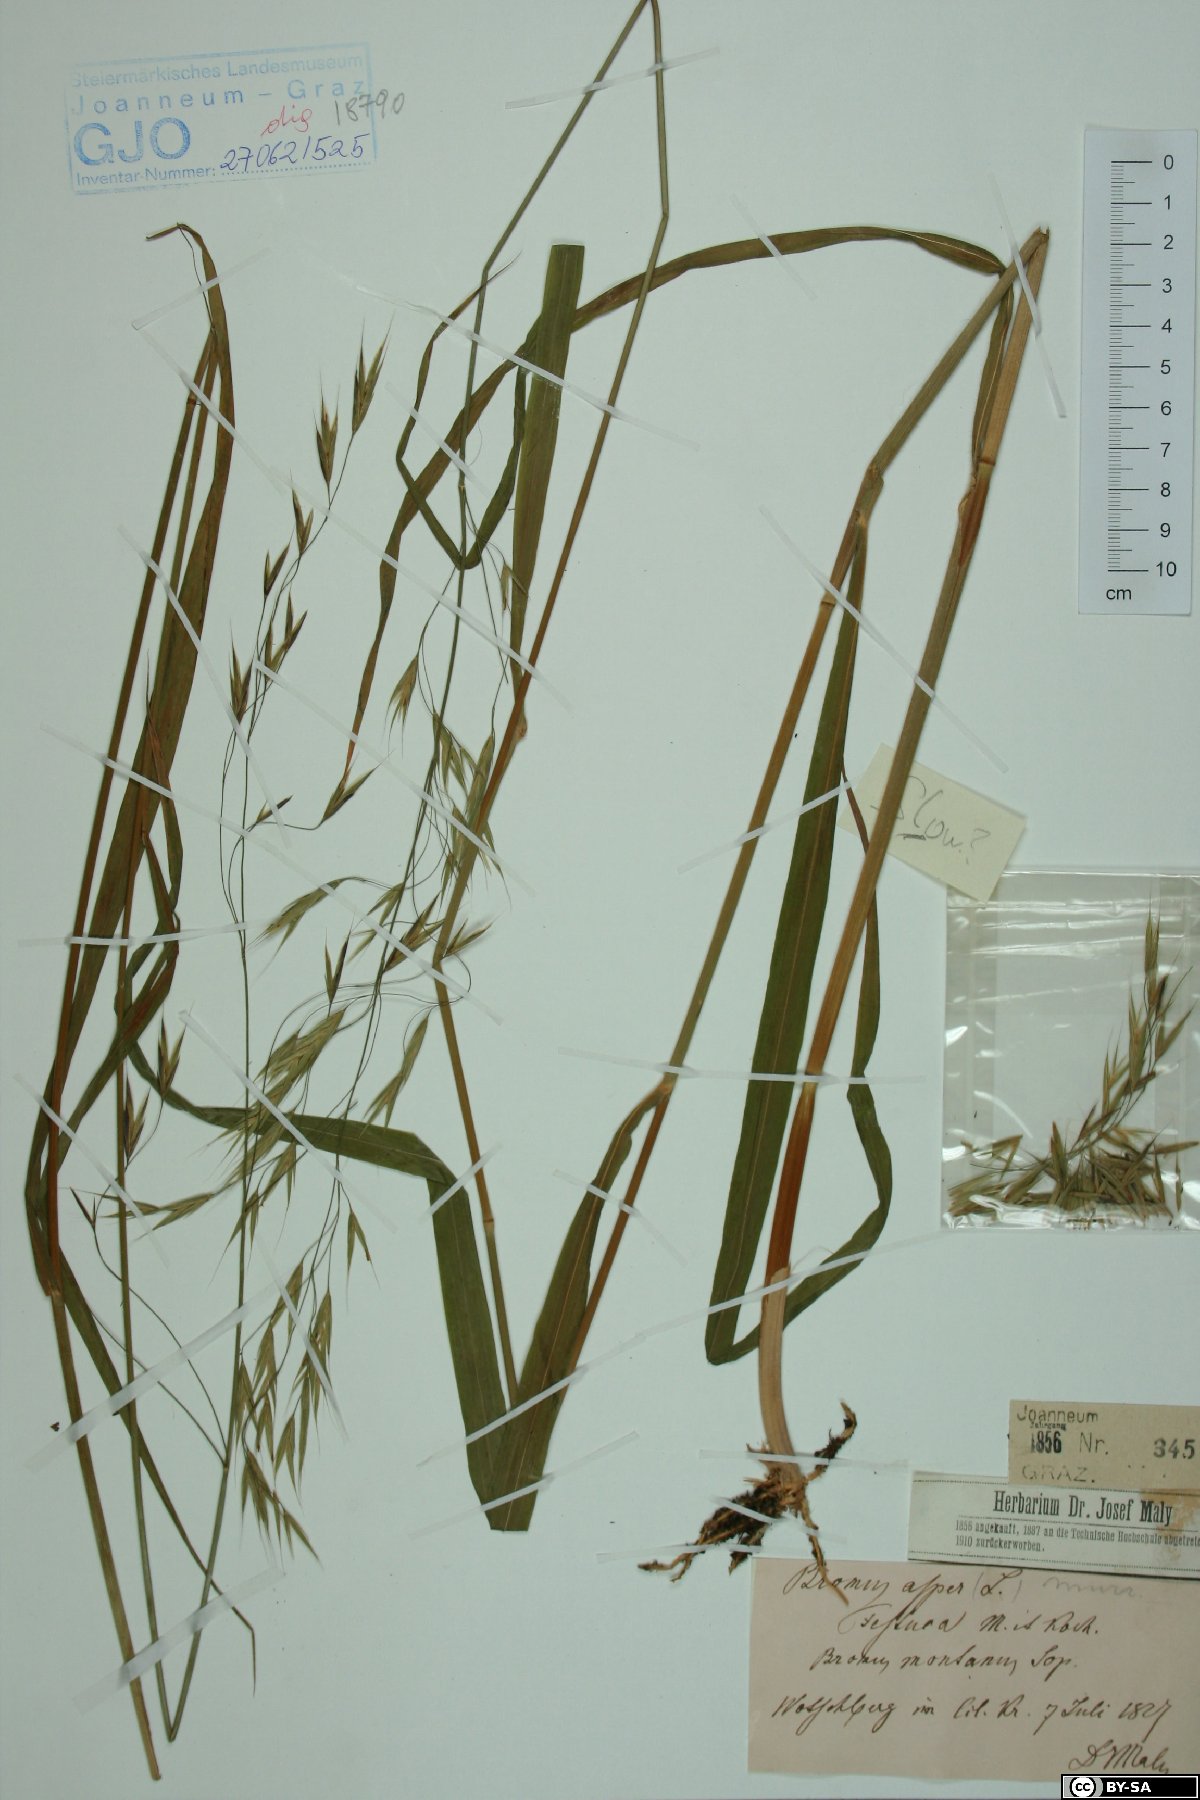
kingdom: Plantae
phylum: Tracheophyta
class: Liliopsida
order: Poales
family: Poaceae
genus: Bromus
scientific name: Bromus ramosus
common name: Hairy brome
